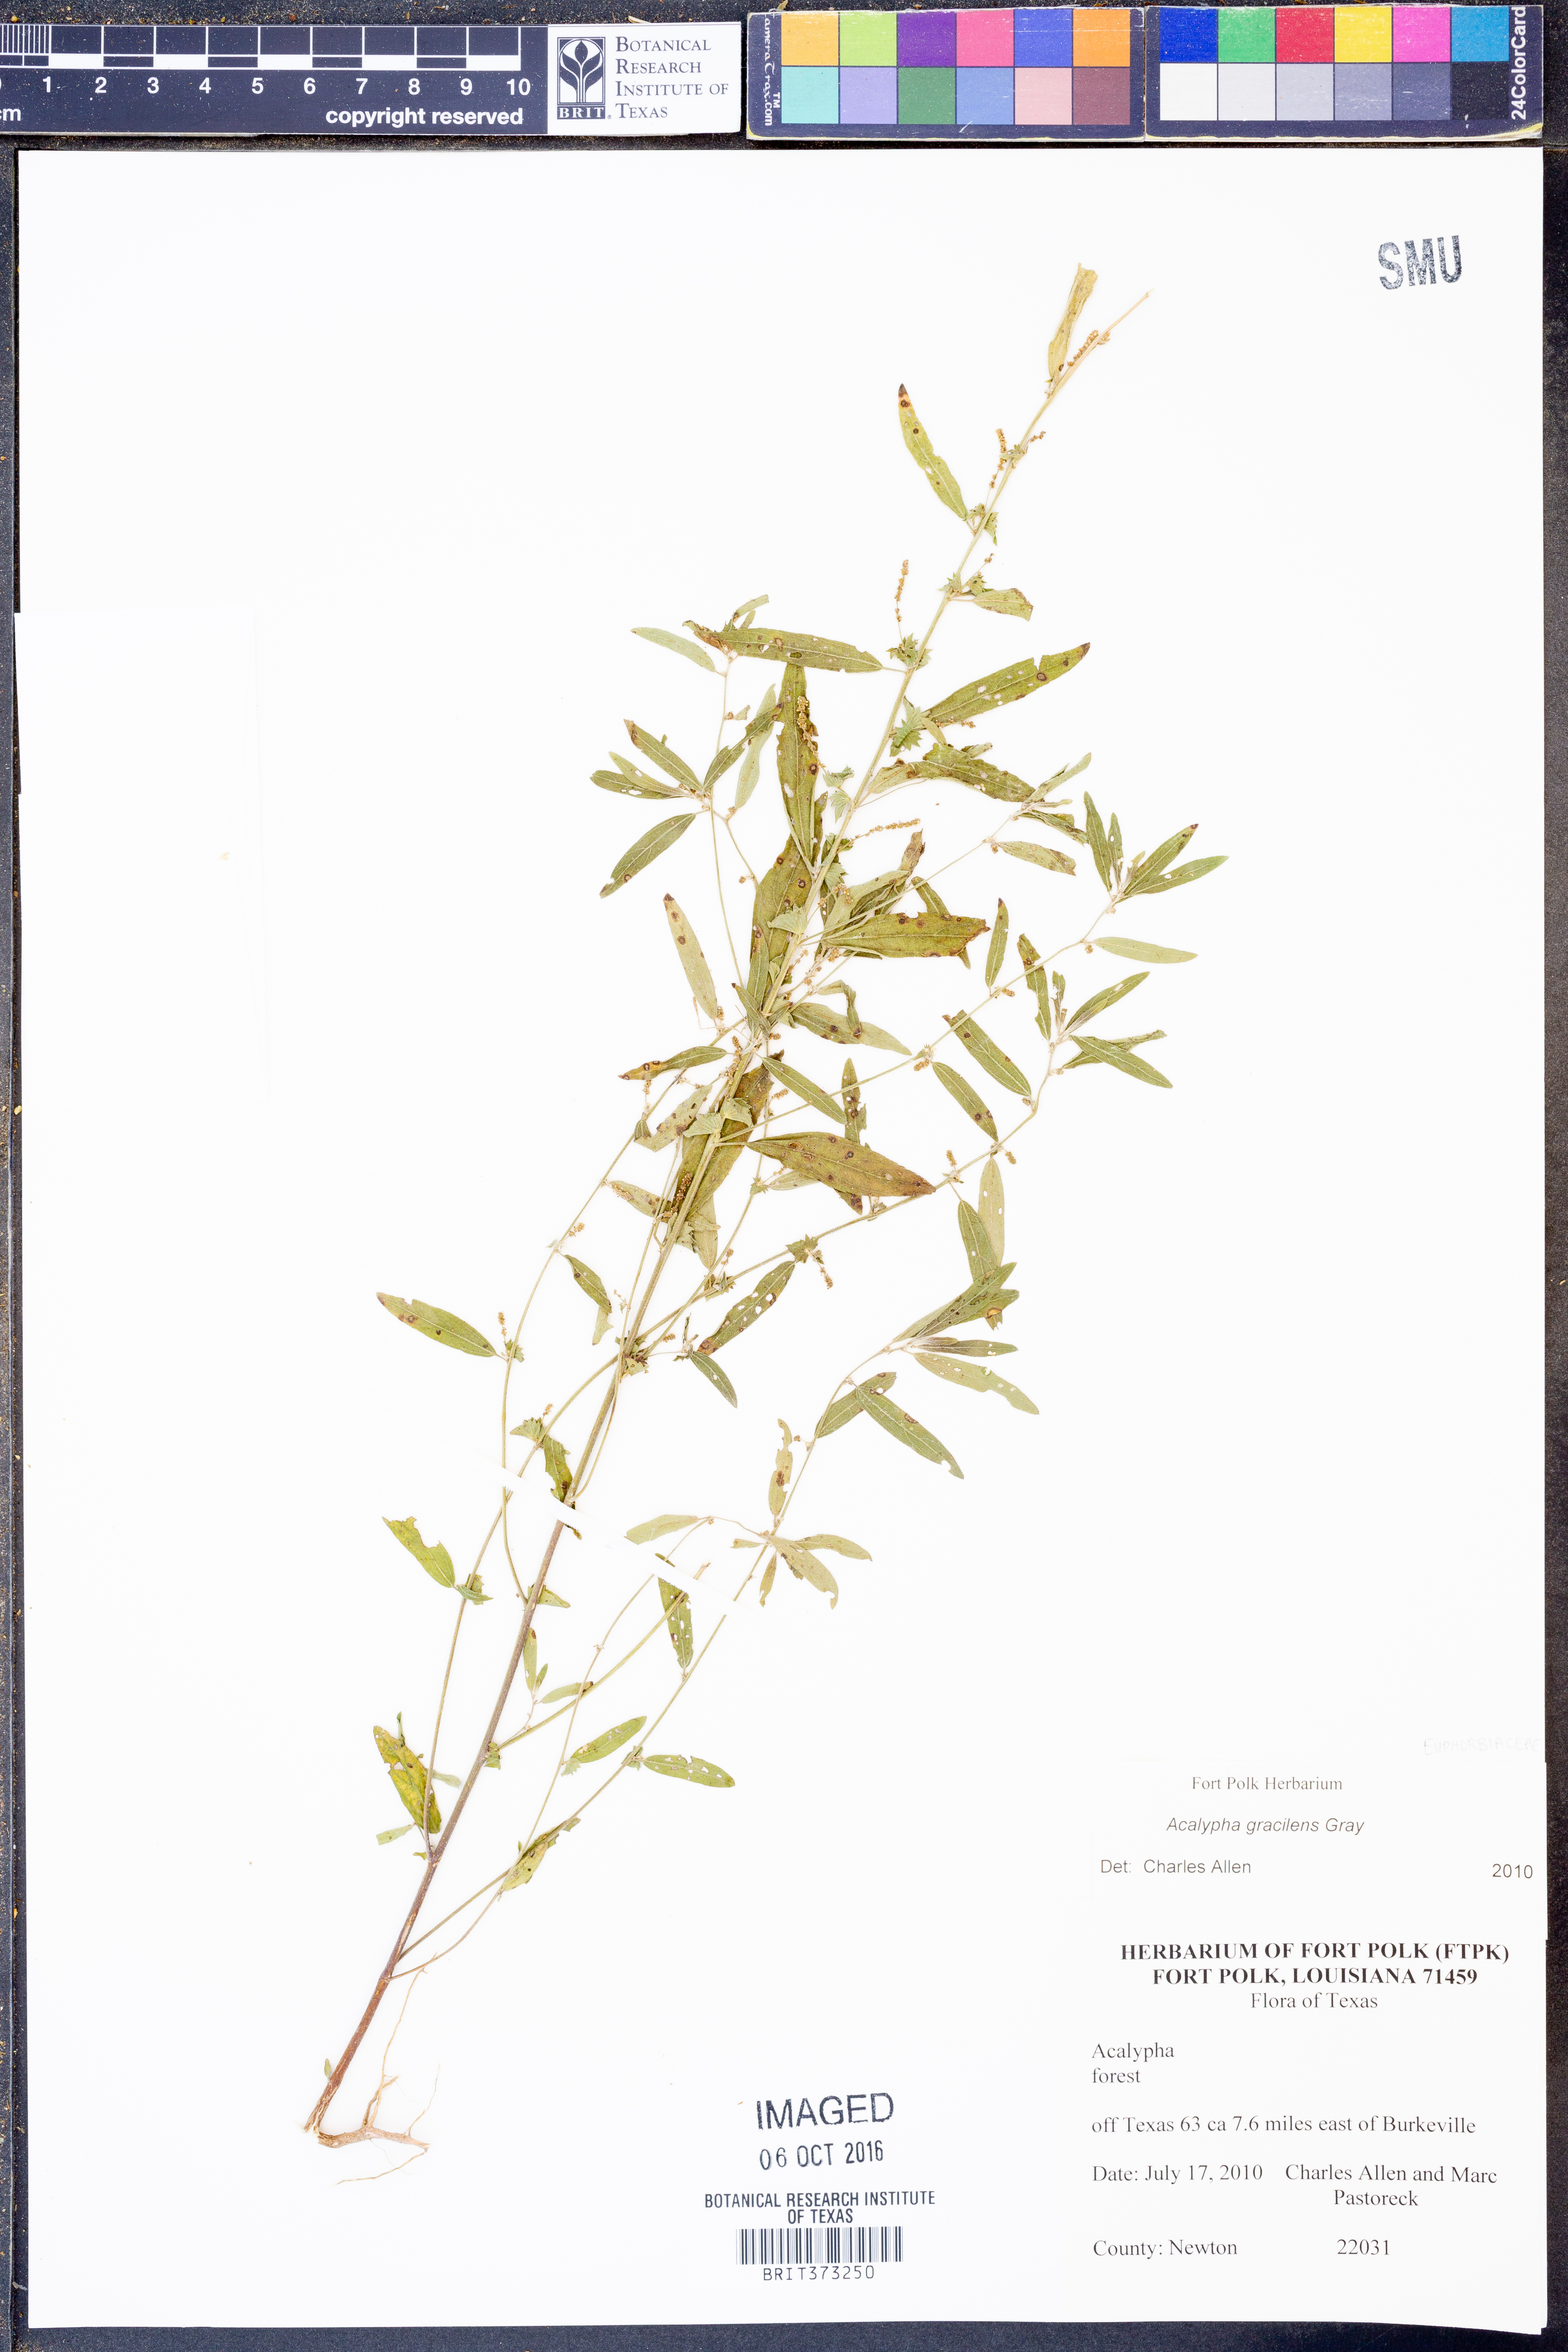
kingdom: Plantae
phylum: Tracheophyta
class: Magnoliopsida
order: Malpighiales
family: Euphorbiaceae
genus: Acalypha
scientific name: Acalypha gracilens
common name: Slender three-seeded mercury
